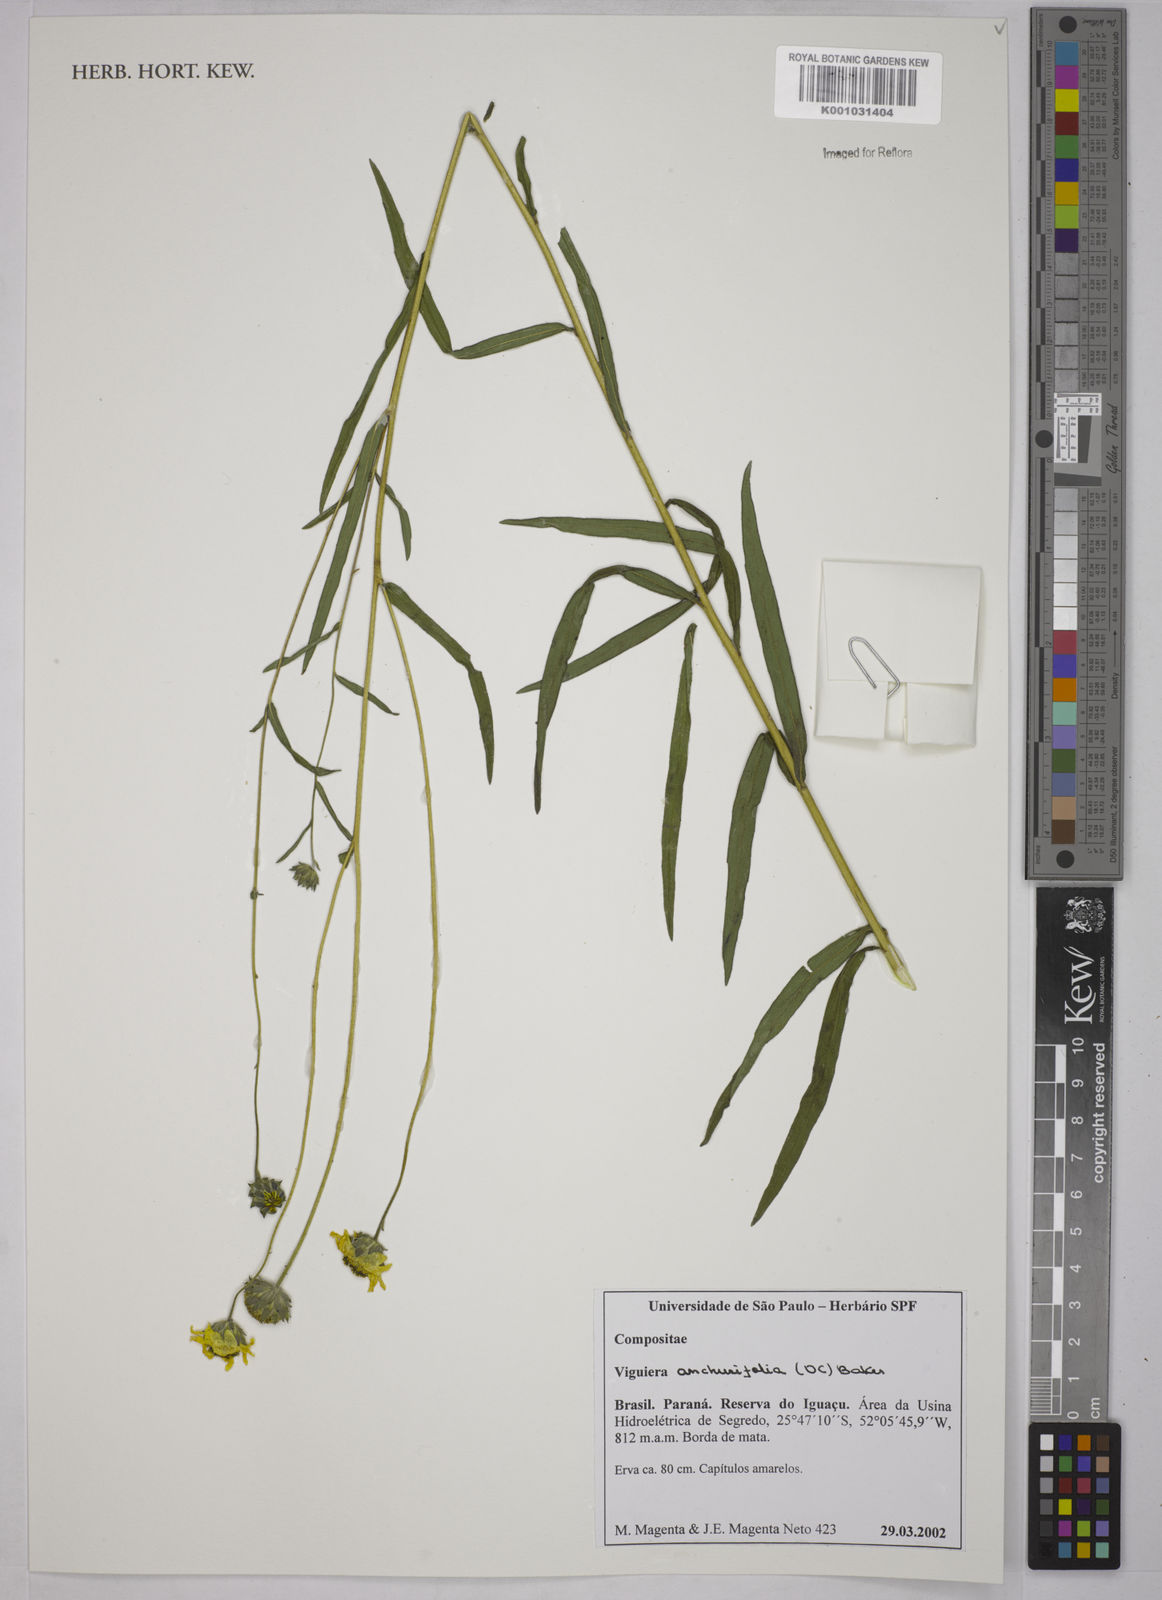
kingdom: Plantae
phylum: Tracheophyta
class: Magnoliopsida
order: Asterales
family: Asteraceae
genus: Viguiera
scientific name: Viguiera
